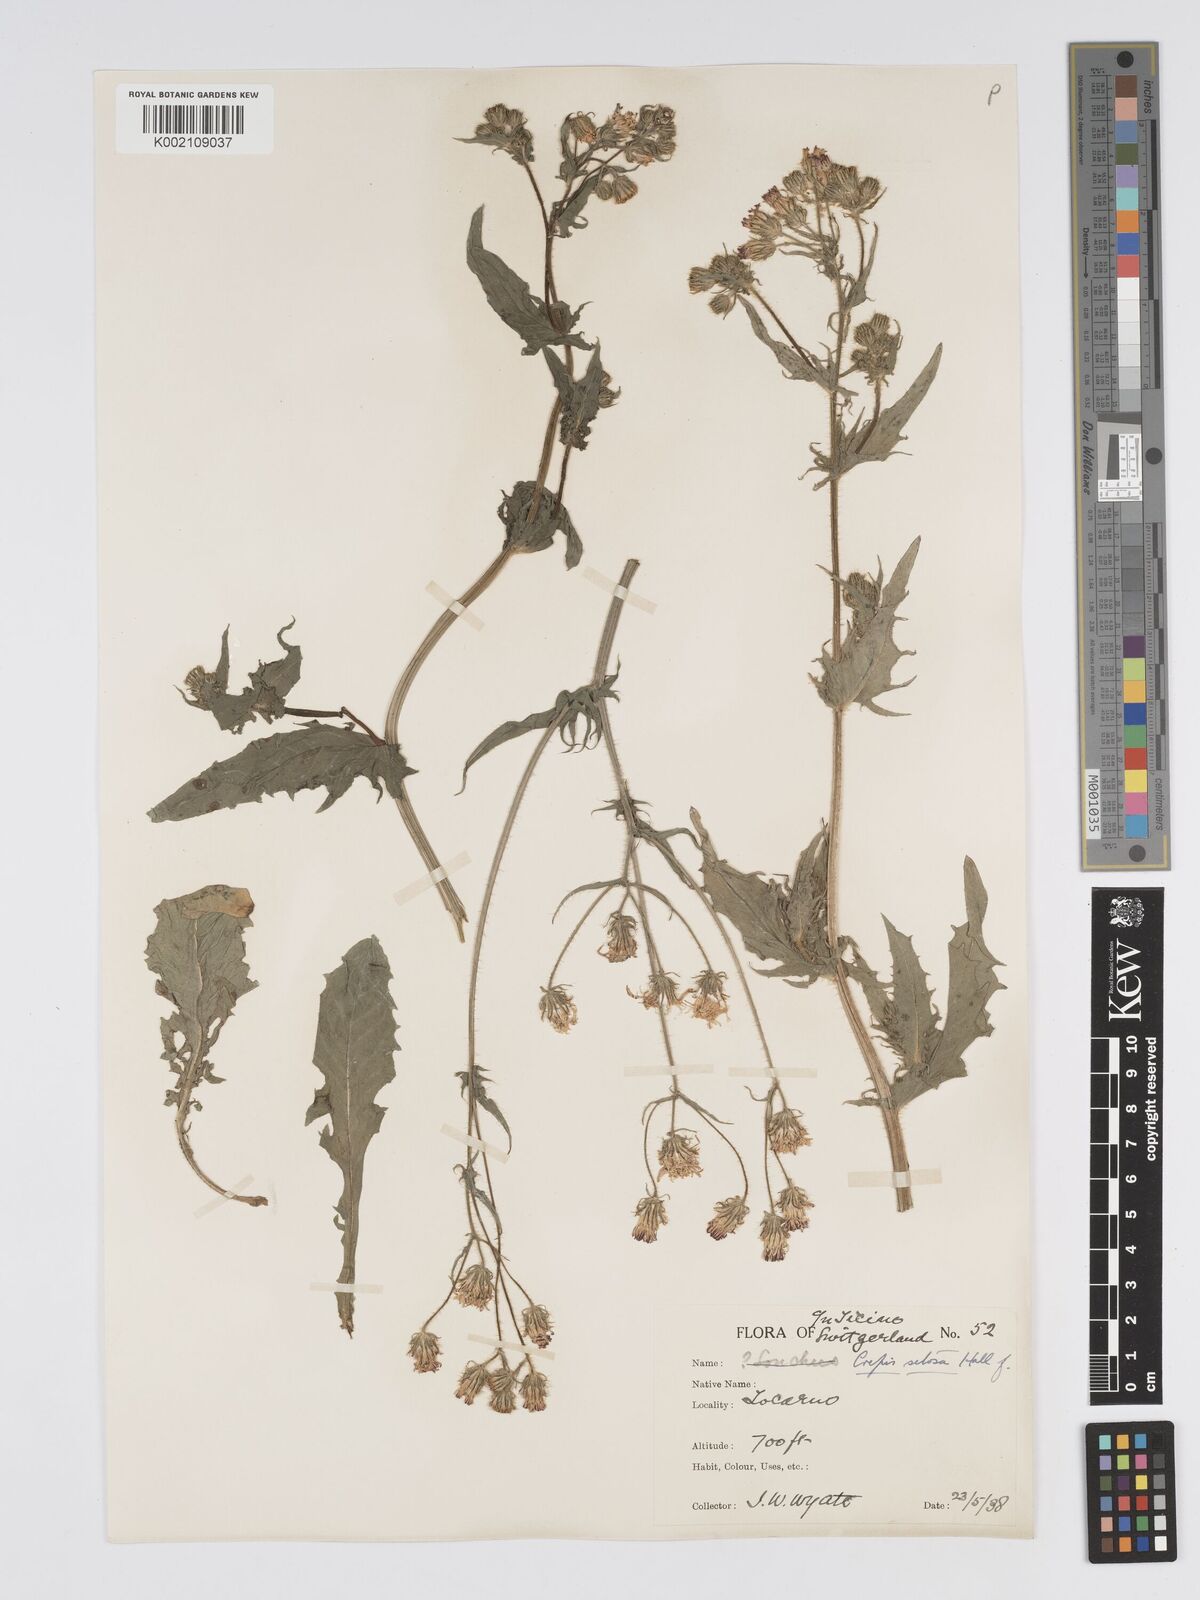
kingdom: Plantae
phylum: Tracheophyta
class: Magnoliopsida
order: Asterales
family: Asteraceae
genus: Crepis
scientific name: Crepis setosa
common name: Bristly hawk's-beard
